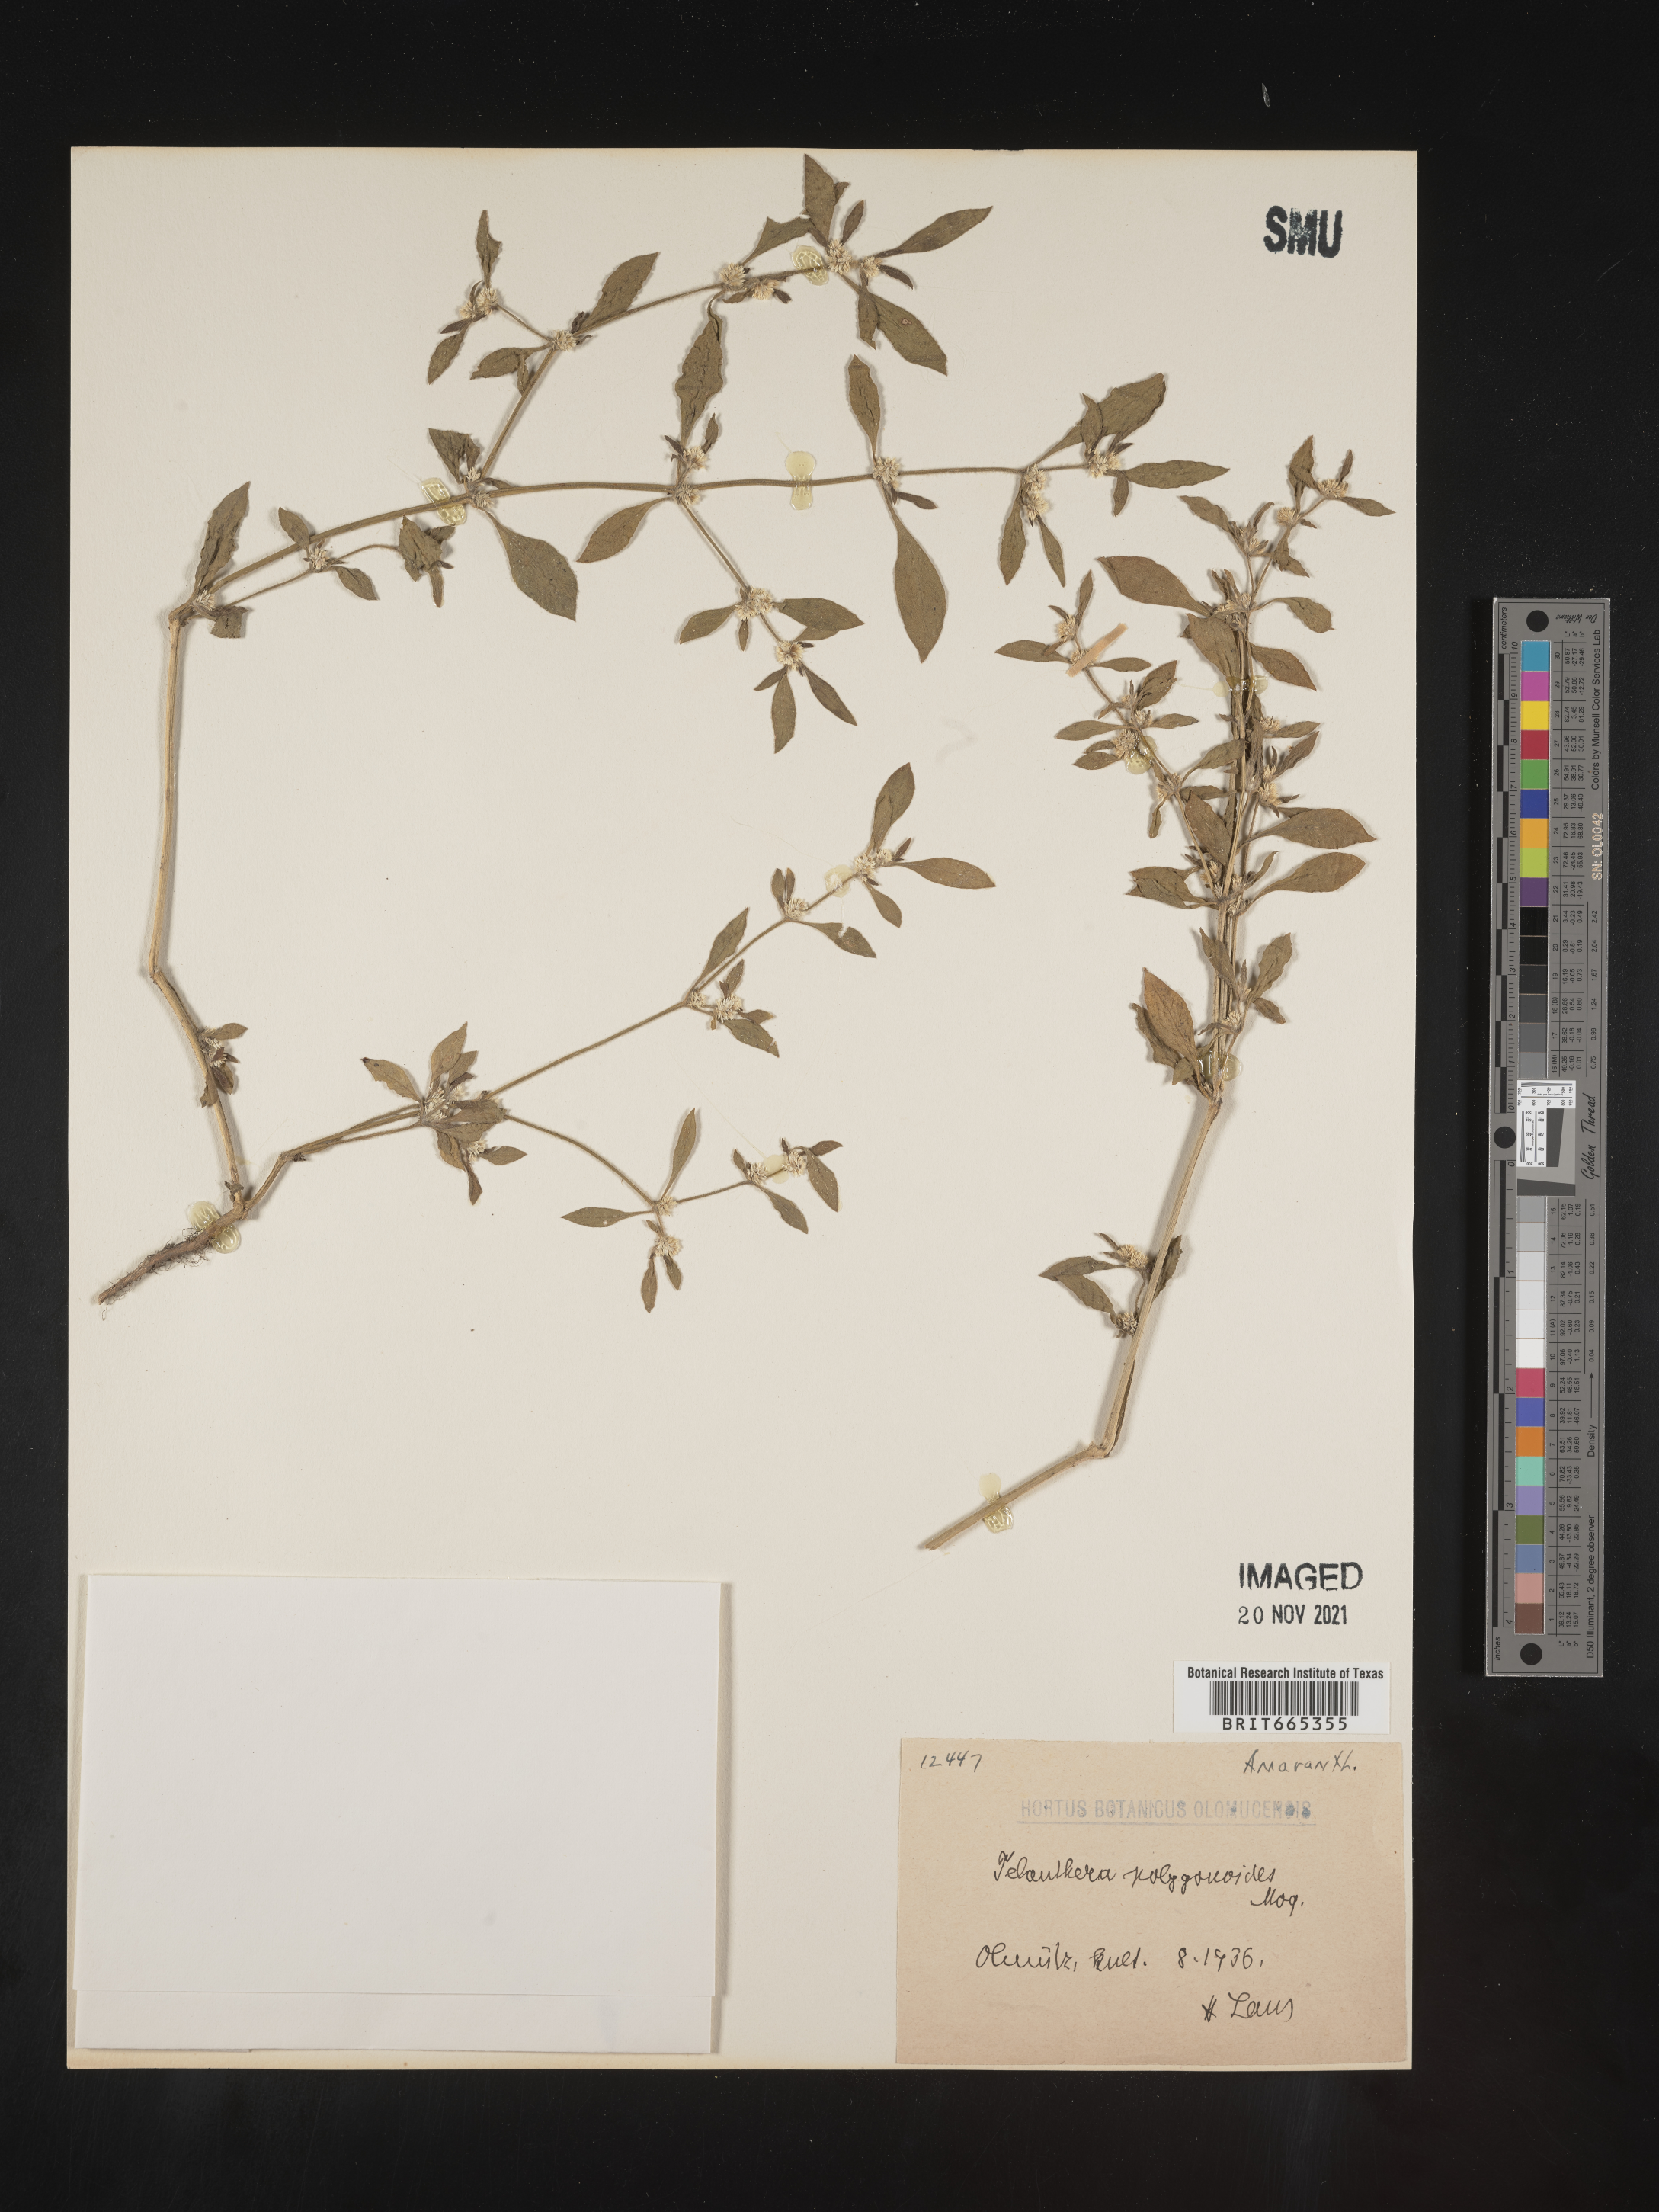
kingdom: Plantae
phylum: Tracheophyta
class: Magnoliopsida
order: Caryophyllales
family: Amaranthaceae
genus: Alternanthera
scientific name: Alternanthera
